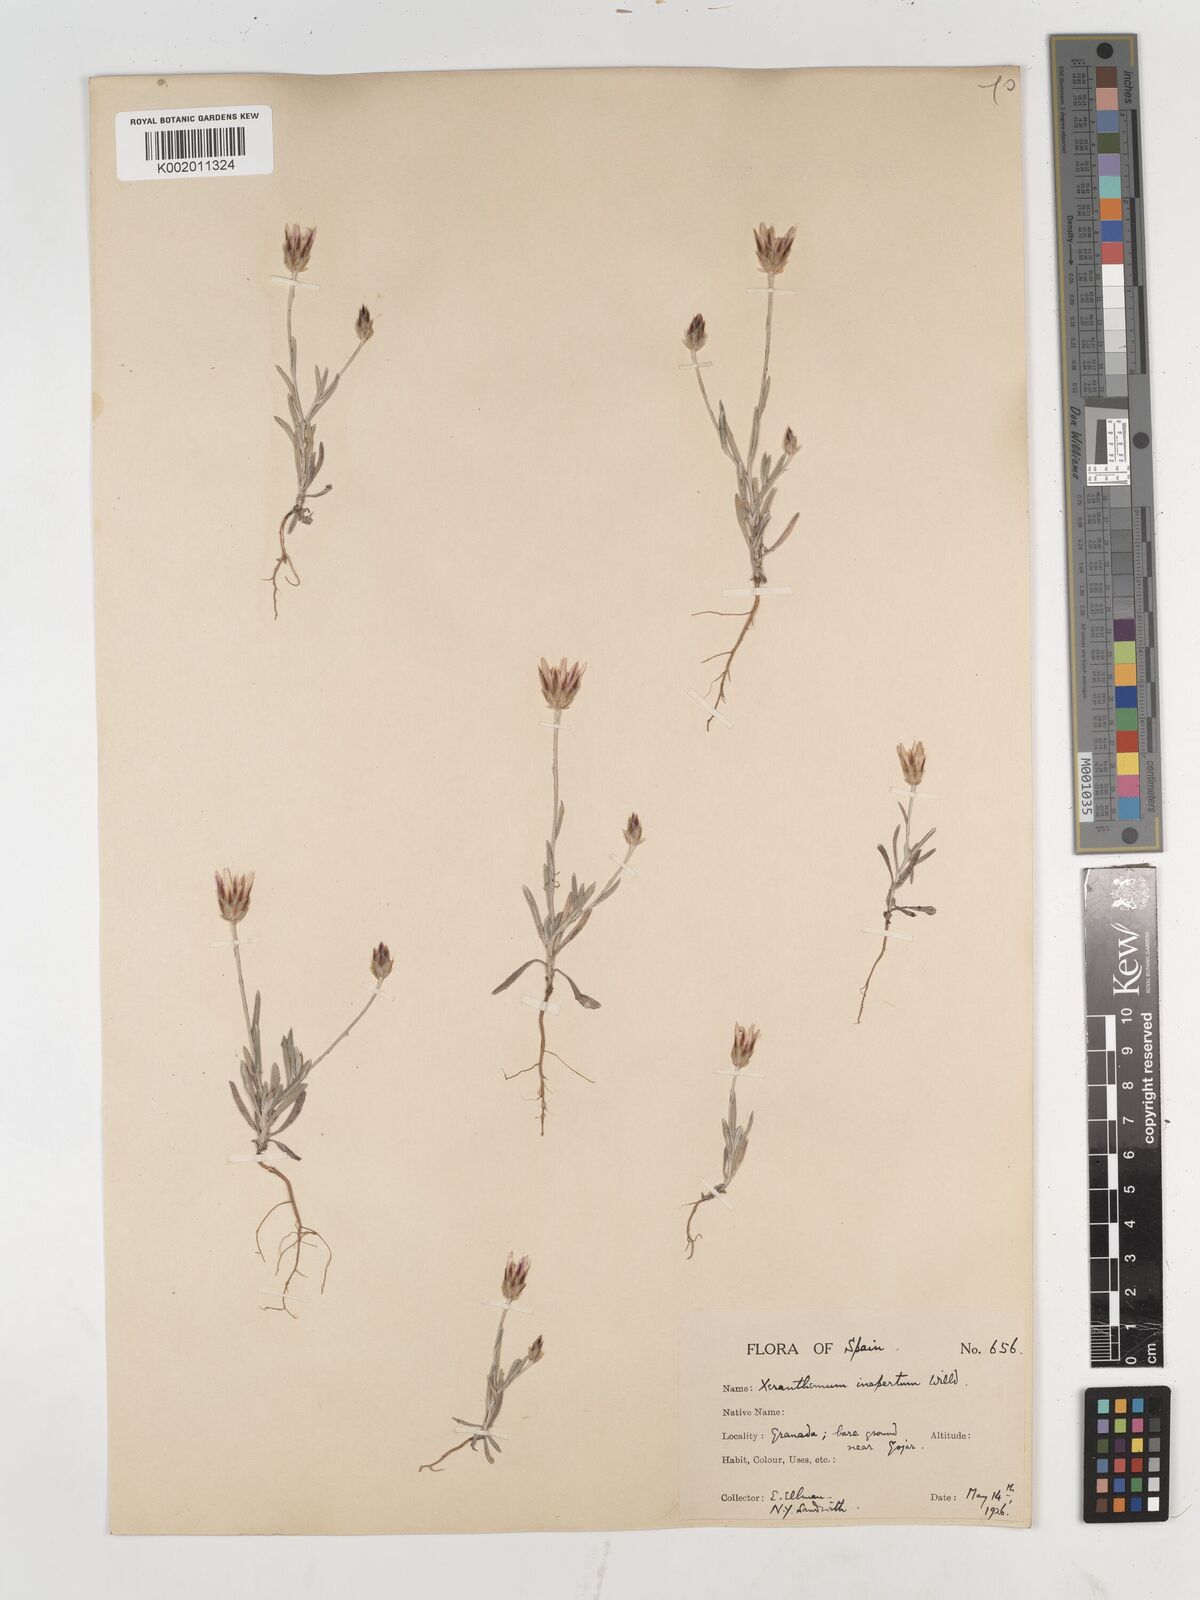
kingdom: Plantae
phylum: Tracheophyta
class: Magnoliopsida
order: Asterales
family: Asteraceae
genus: Xeranthemum
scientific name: Xeranthemum inapertum
